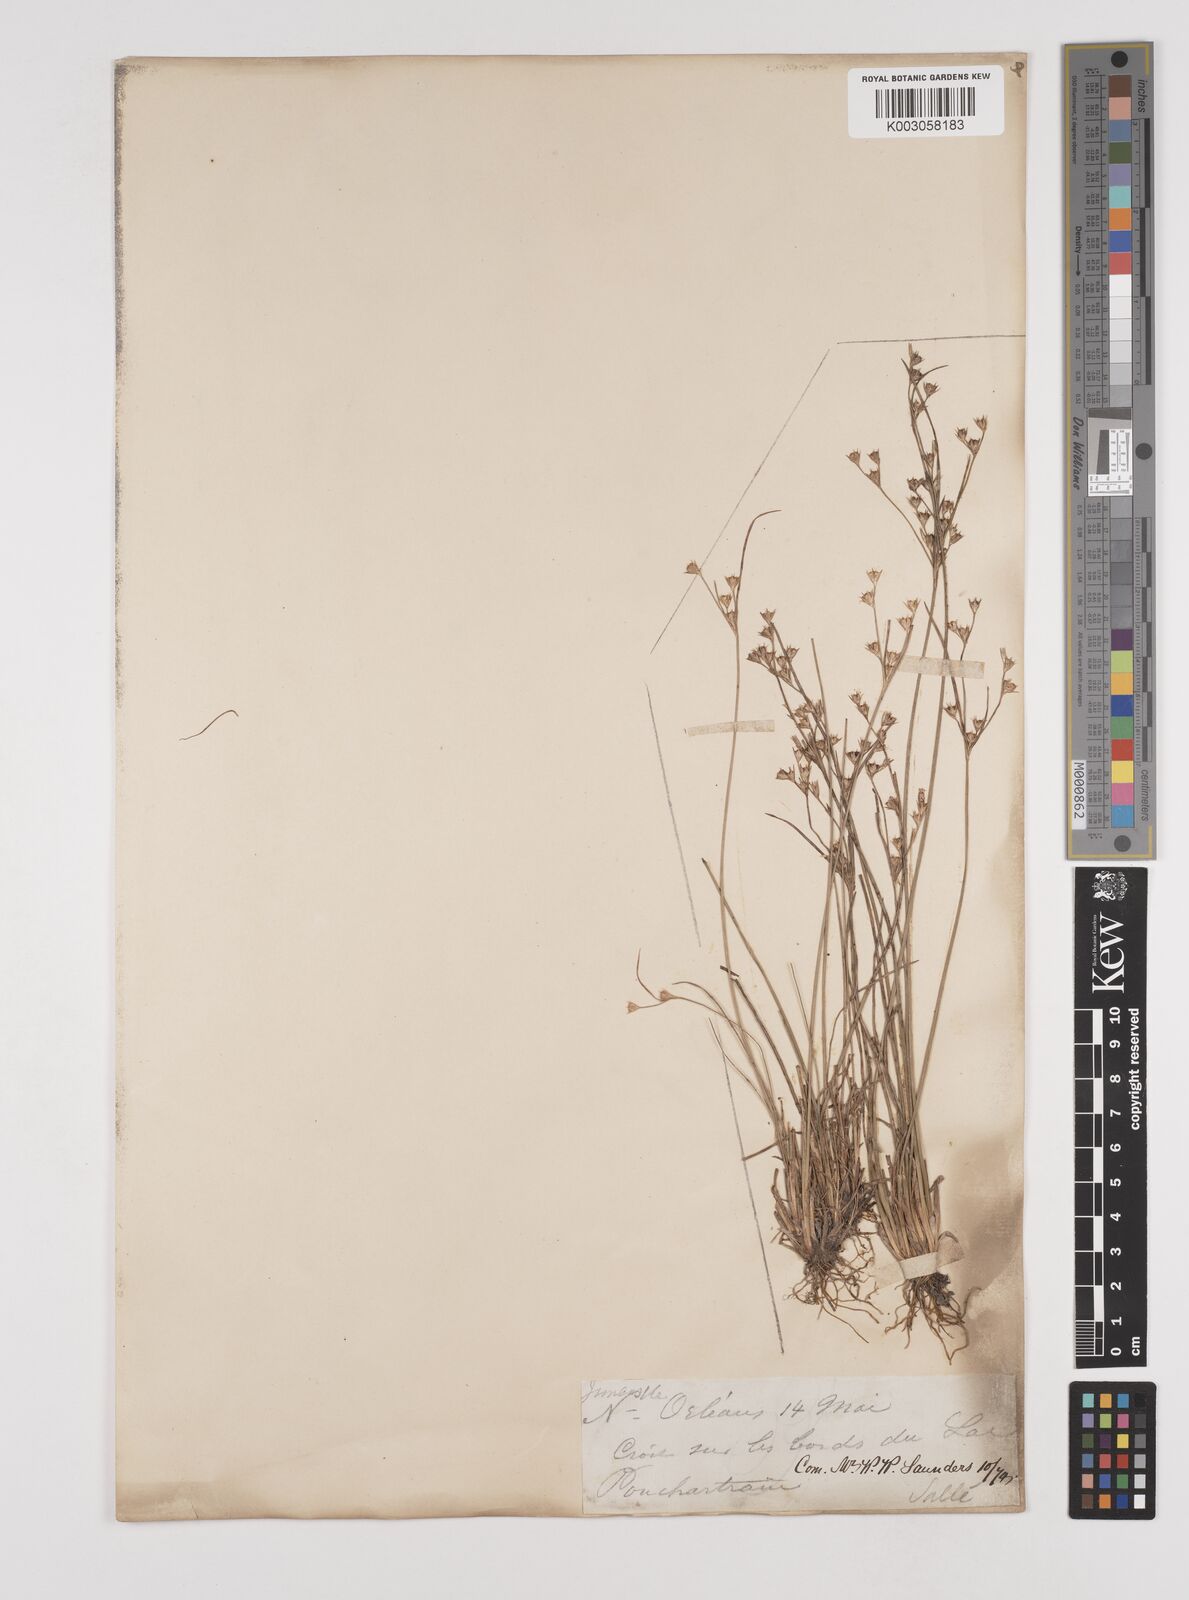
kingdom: Plantae
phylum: Tracheophyta
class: Liliopsida
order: Poales
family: Juncaceae
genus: Juncus
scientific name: Juncus
